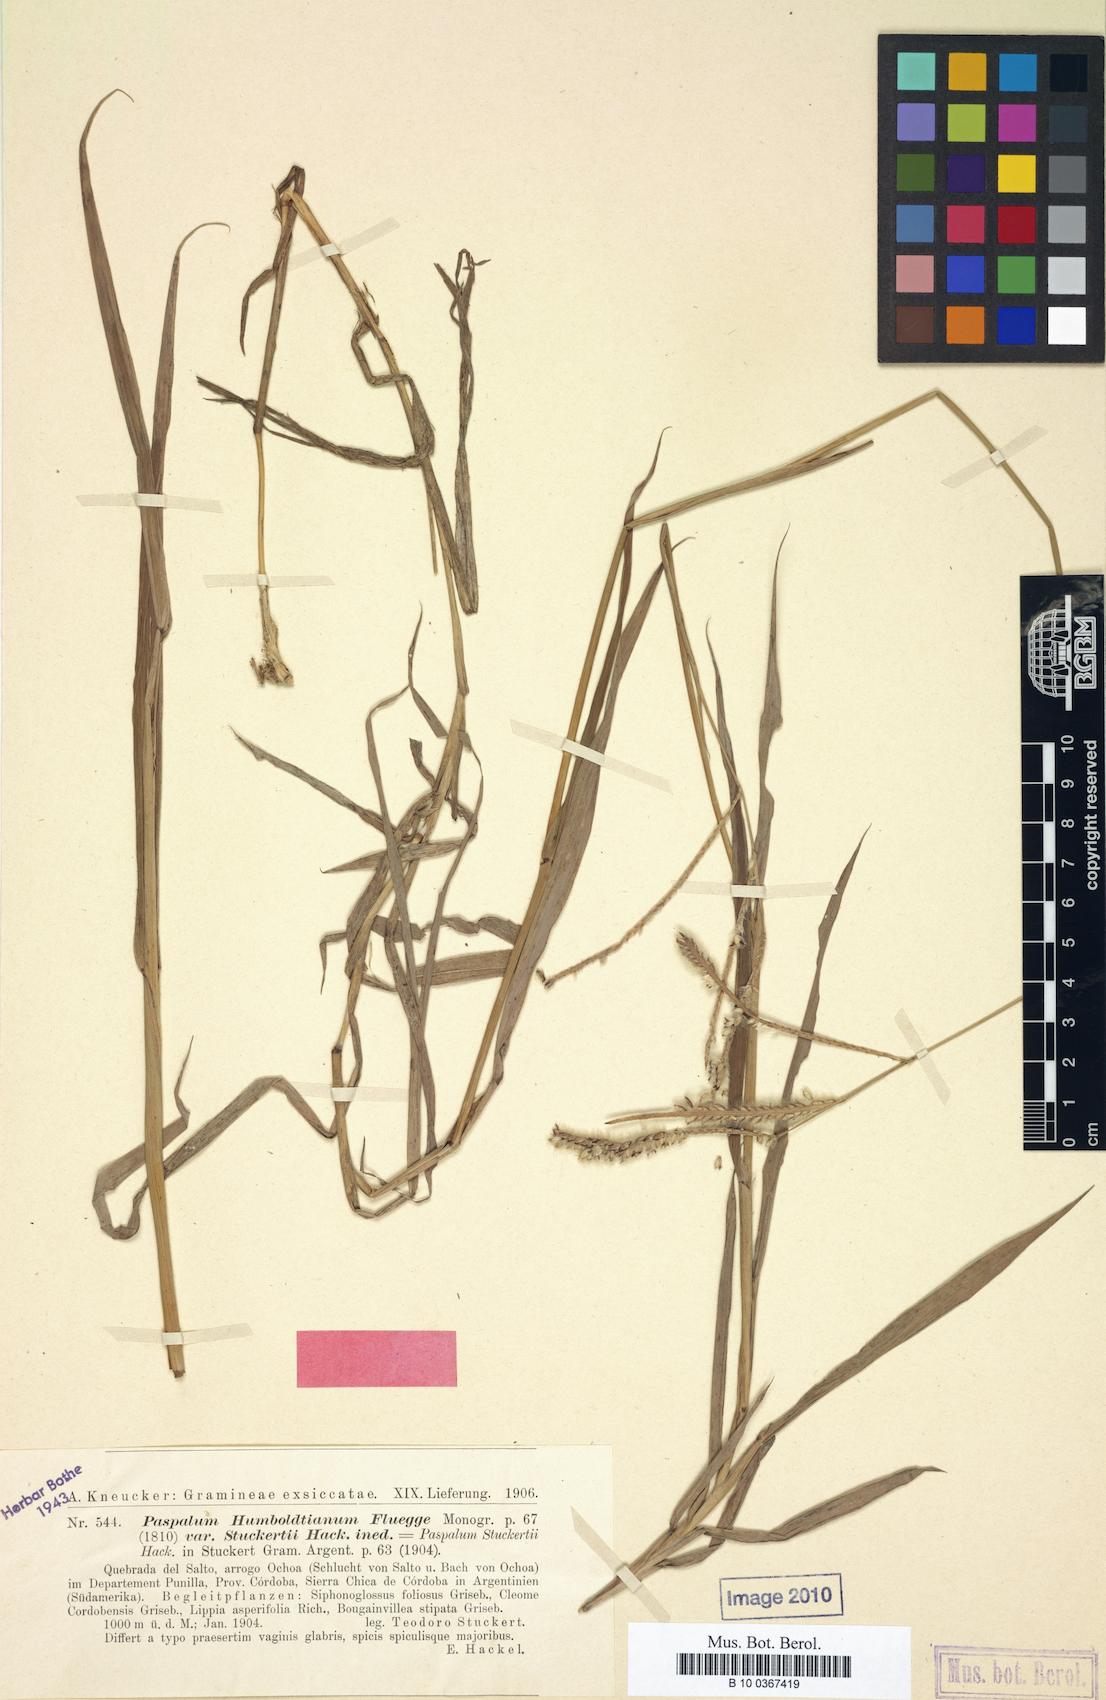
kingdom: Plantae
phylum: Tracheophyta
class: Liliopsida
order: Poales
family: Poaceae
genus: Paspalum
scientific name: Paspalum humboldtianum
